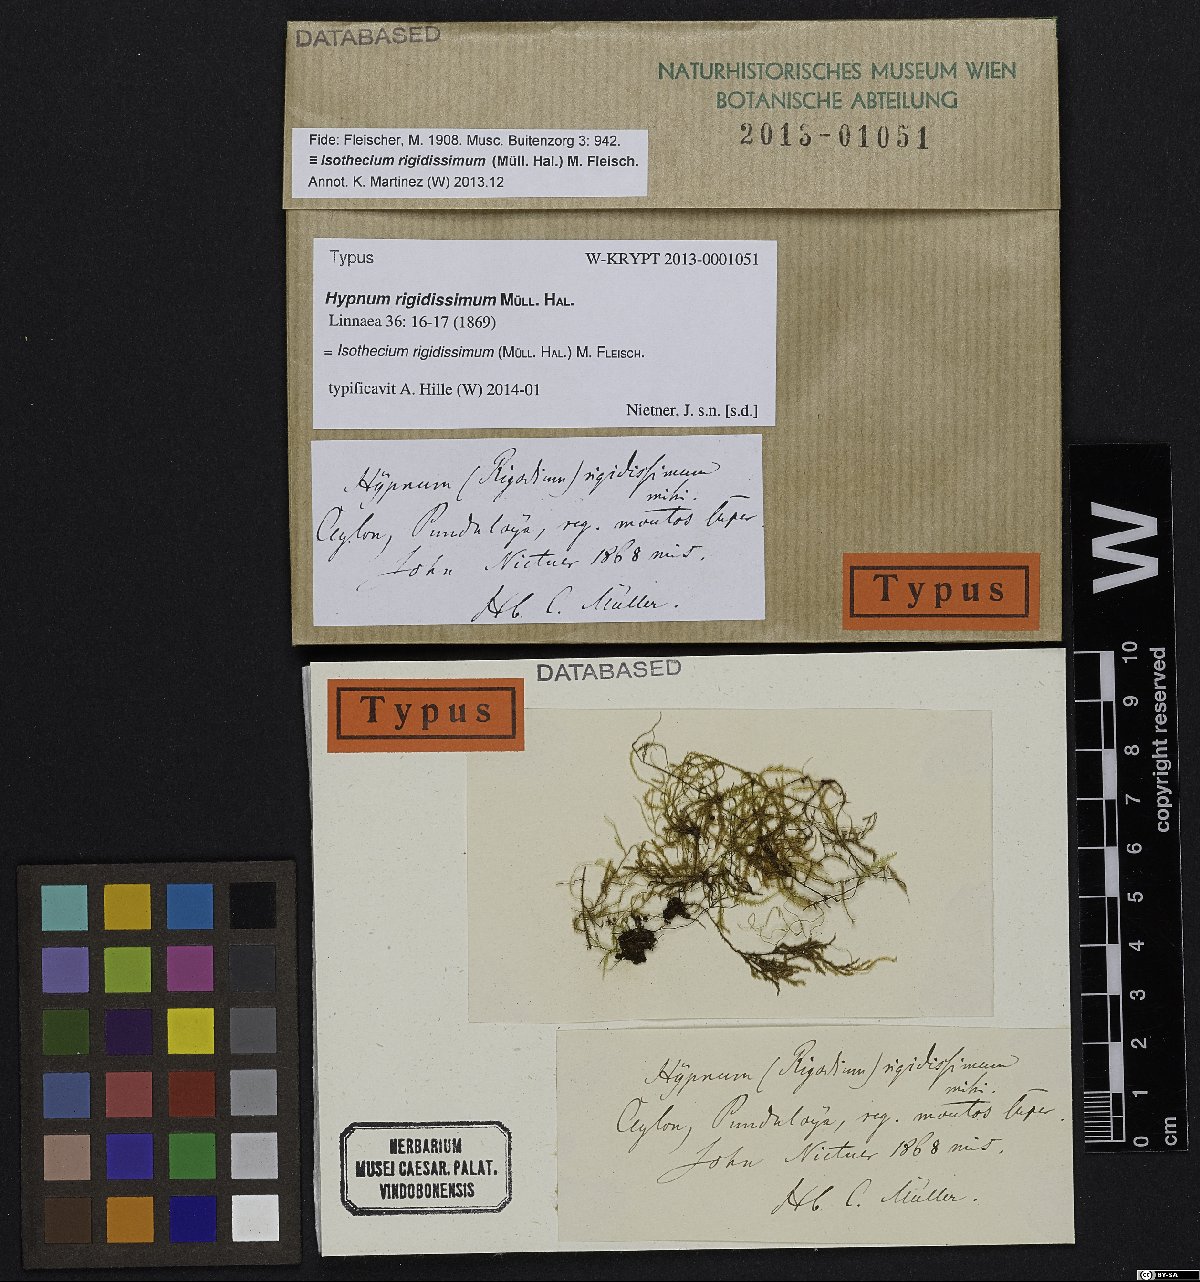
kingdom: Plantae
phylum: Bryophyta
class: Bryopsida
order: Hypnales
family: Lembophyllaceae
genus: Isothecium
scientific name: Isothecium rigidissimum
